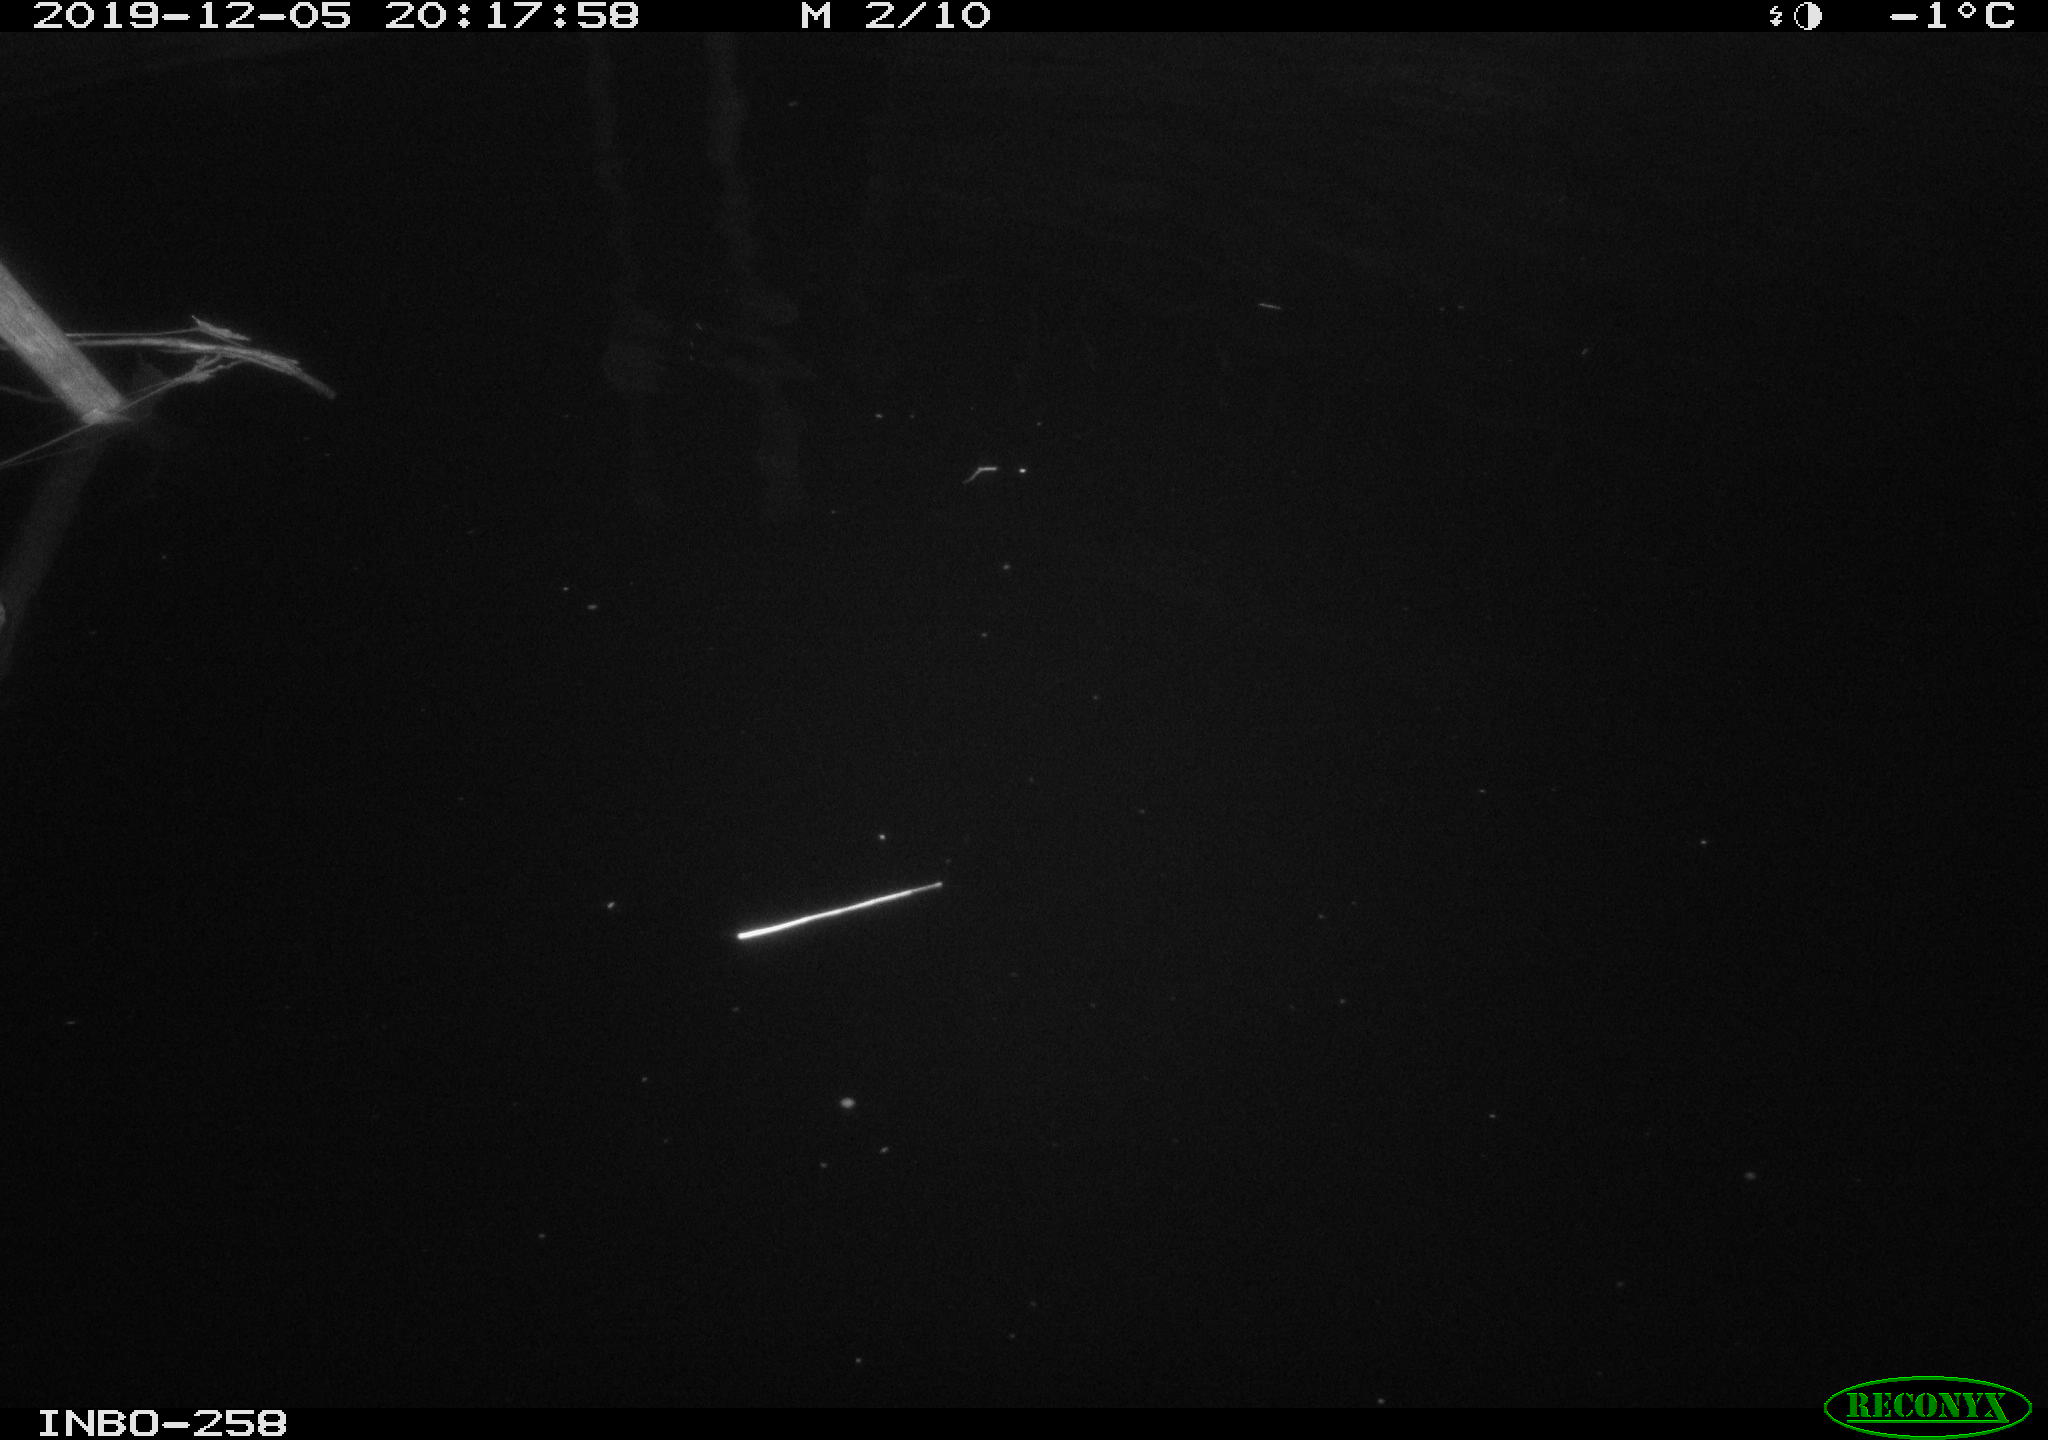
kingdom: Animalia
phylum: Chordata
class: Aves
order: Anseriformes
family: Anatidae
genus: Anas
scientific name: Anas platyrhynchos
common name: Mallard
